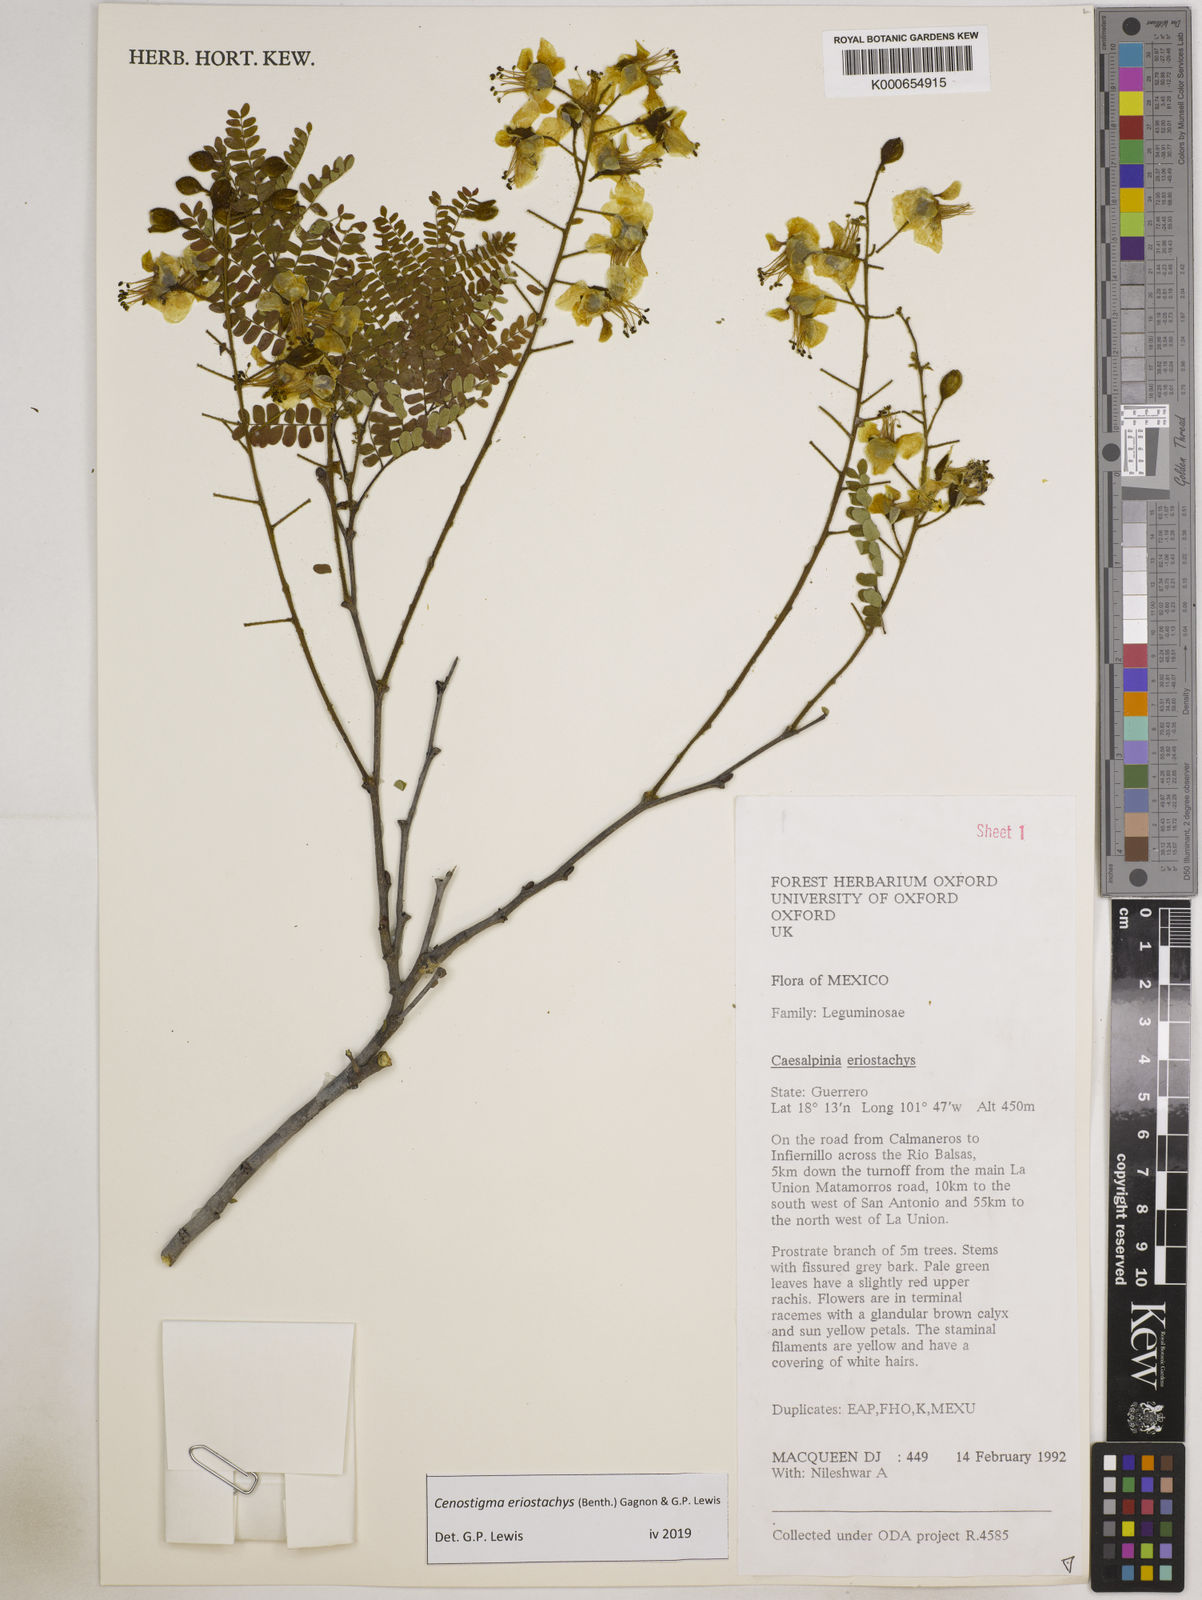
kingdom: Plantae
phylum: Tracheophyta
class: Magnoliopsida
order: Fabales
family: Fabaceae
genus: Cenostigma
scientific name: Cenostigma eriostachys
